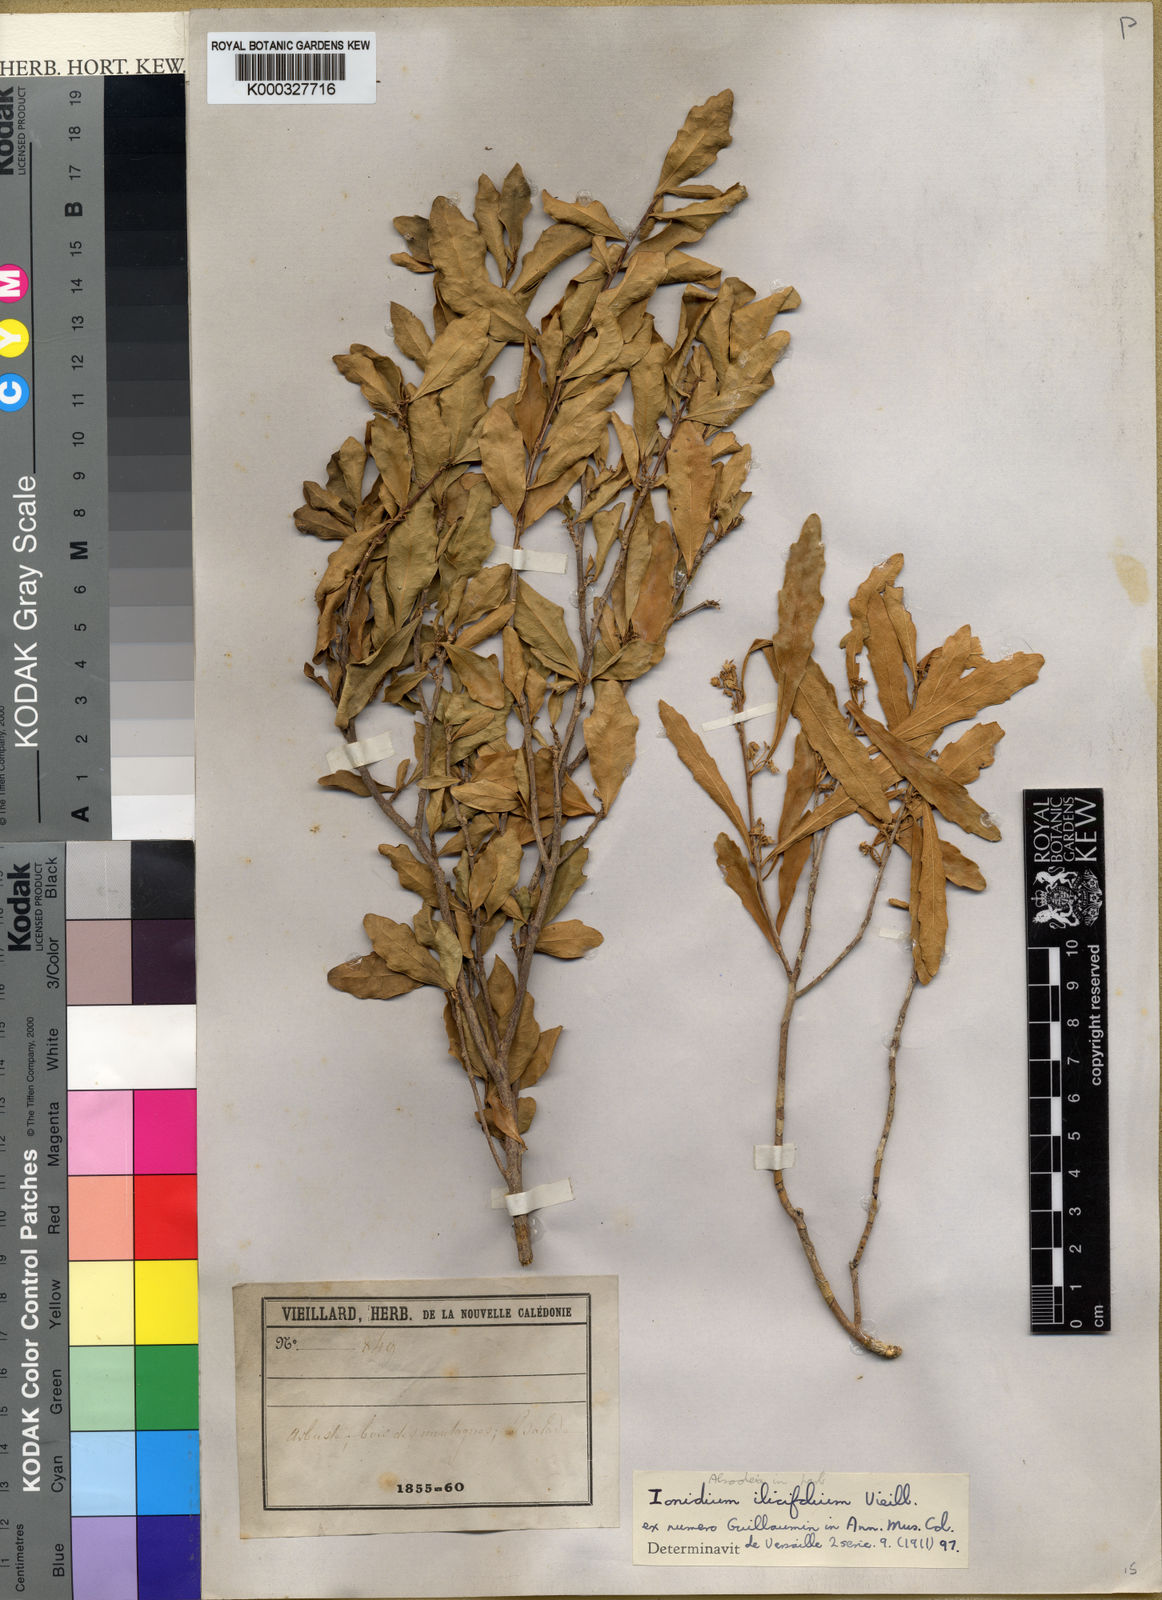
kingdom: Plantae
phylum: Tracheophyta
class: Magnoliopsida
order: Malpighiales
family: Violaceae
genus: Pigea
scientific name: Pigea caledonica
